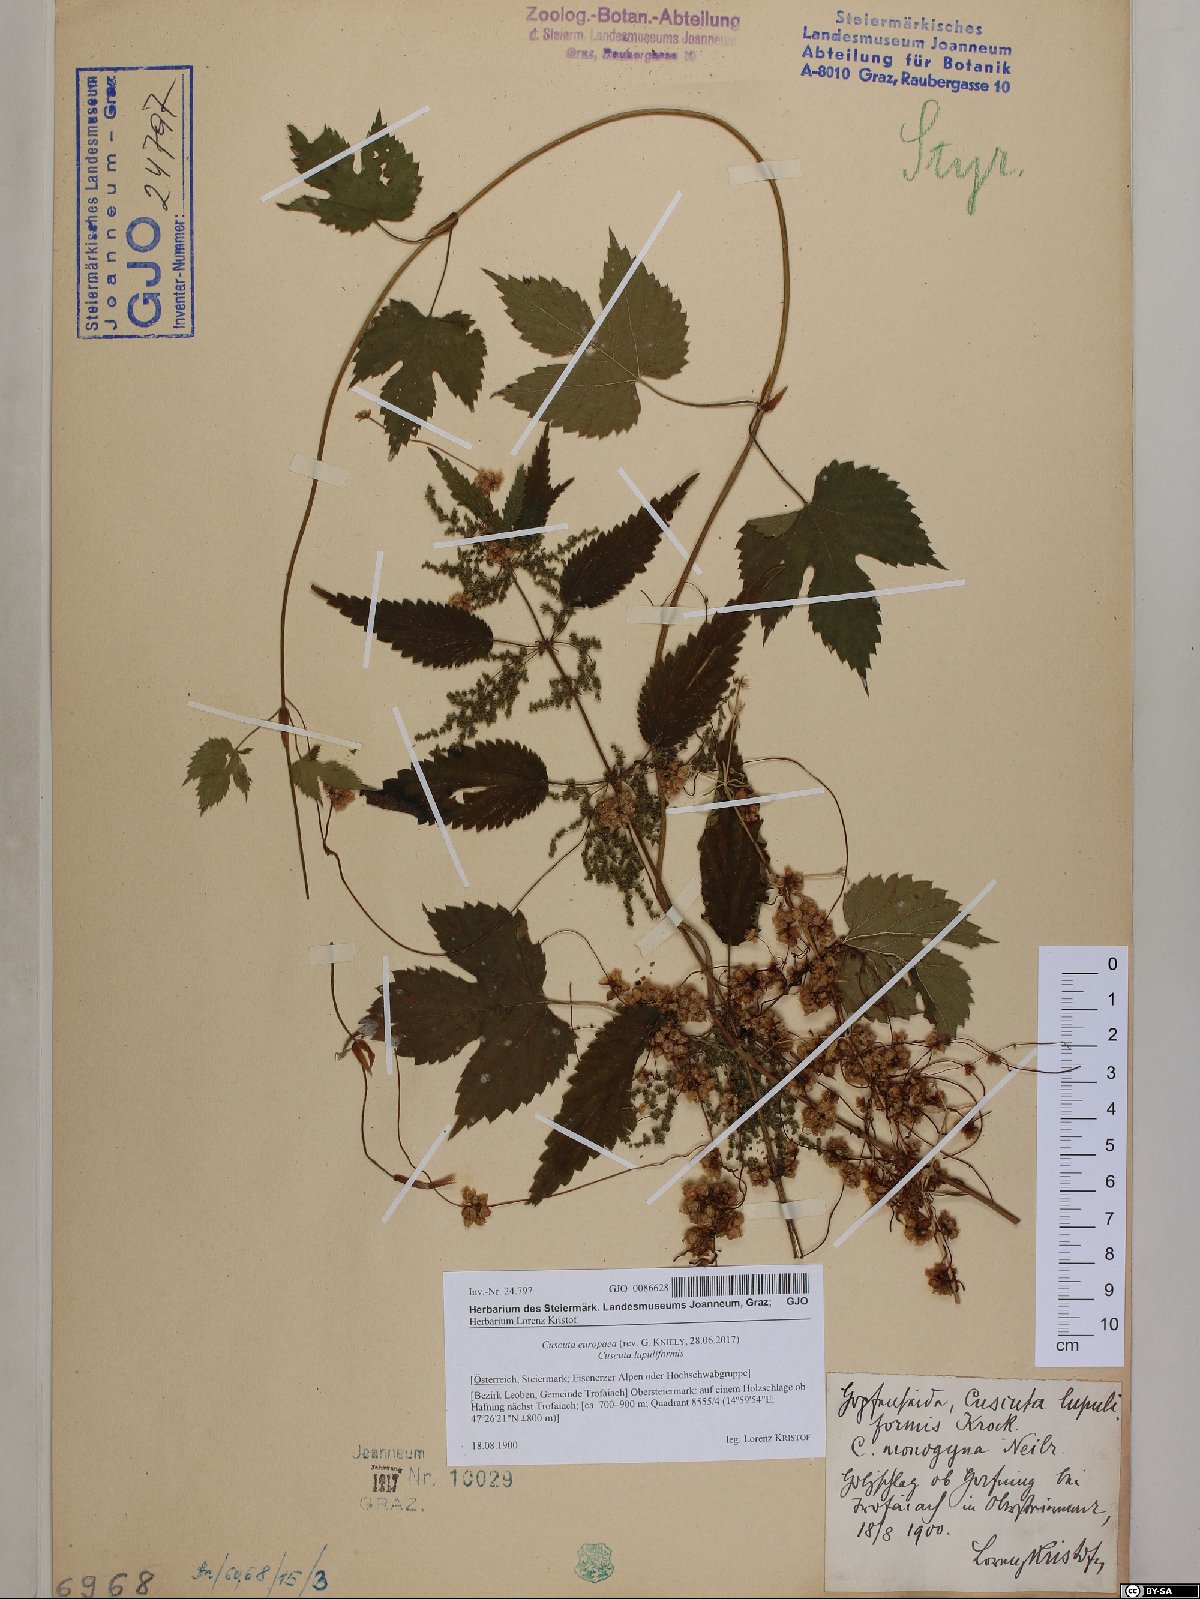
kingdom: Plantae
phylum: Tracheophyta
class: Magnoliopsida
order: Solanales
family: Convolvulaceae
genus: Cuscuta
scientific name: Cuscuta europaea
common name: Greater dodder
